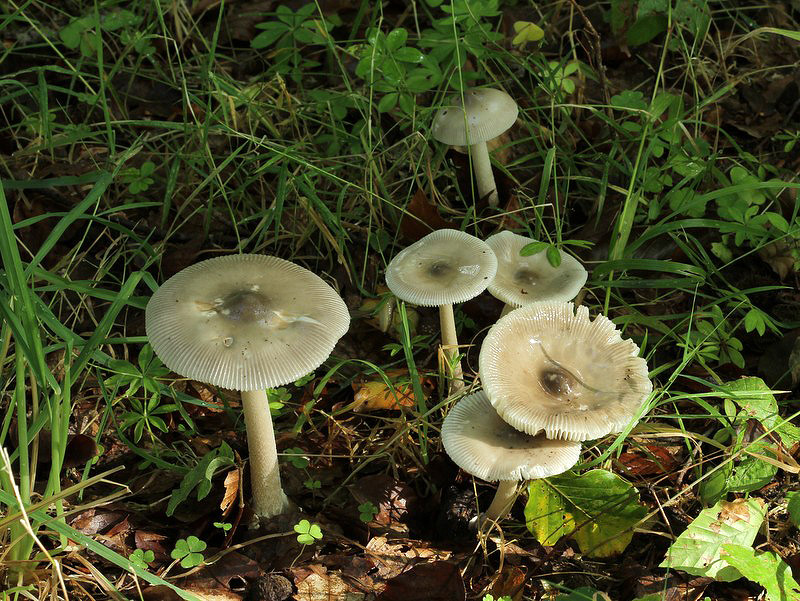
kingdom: Fungi
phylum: Basidiomycota
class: Agaricomycetes
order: Agaricales
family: Amanitaceae
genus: Amanita
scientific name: Amanita vaginata
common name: grå kam-fluesvamp
